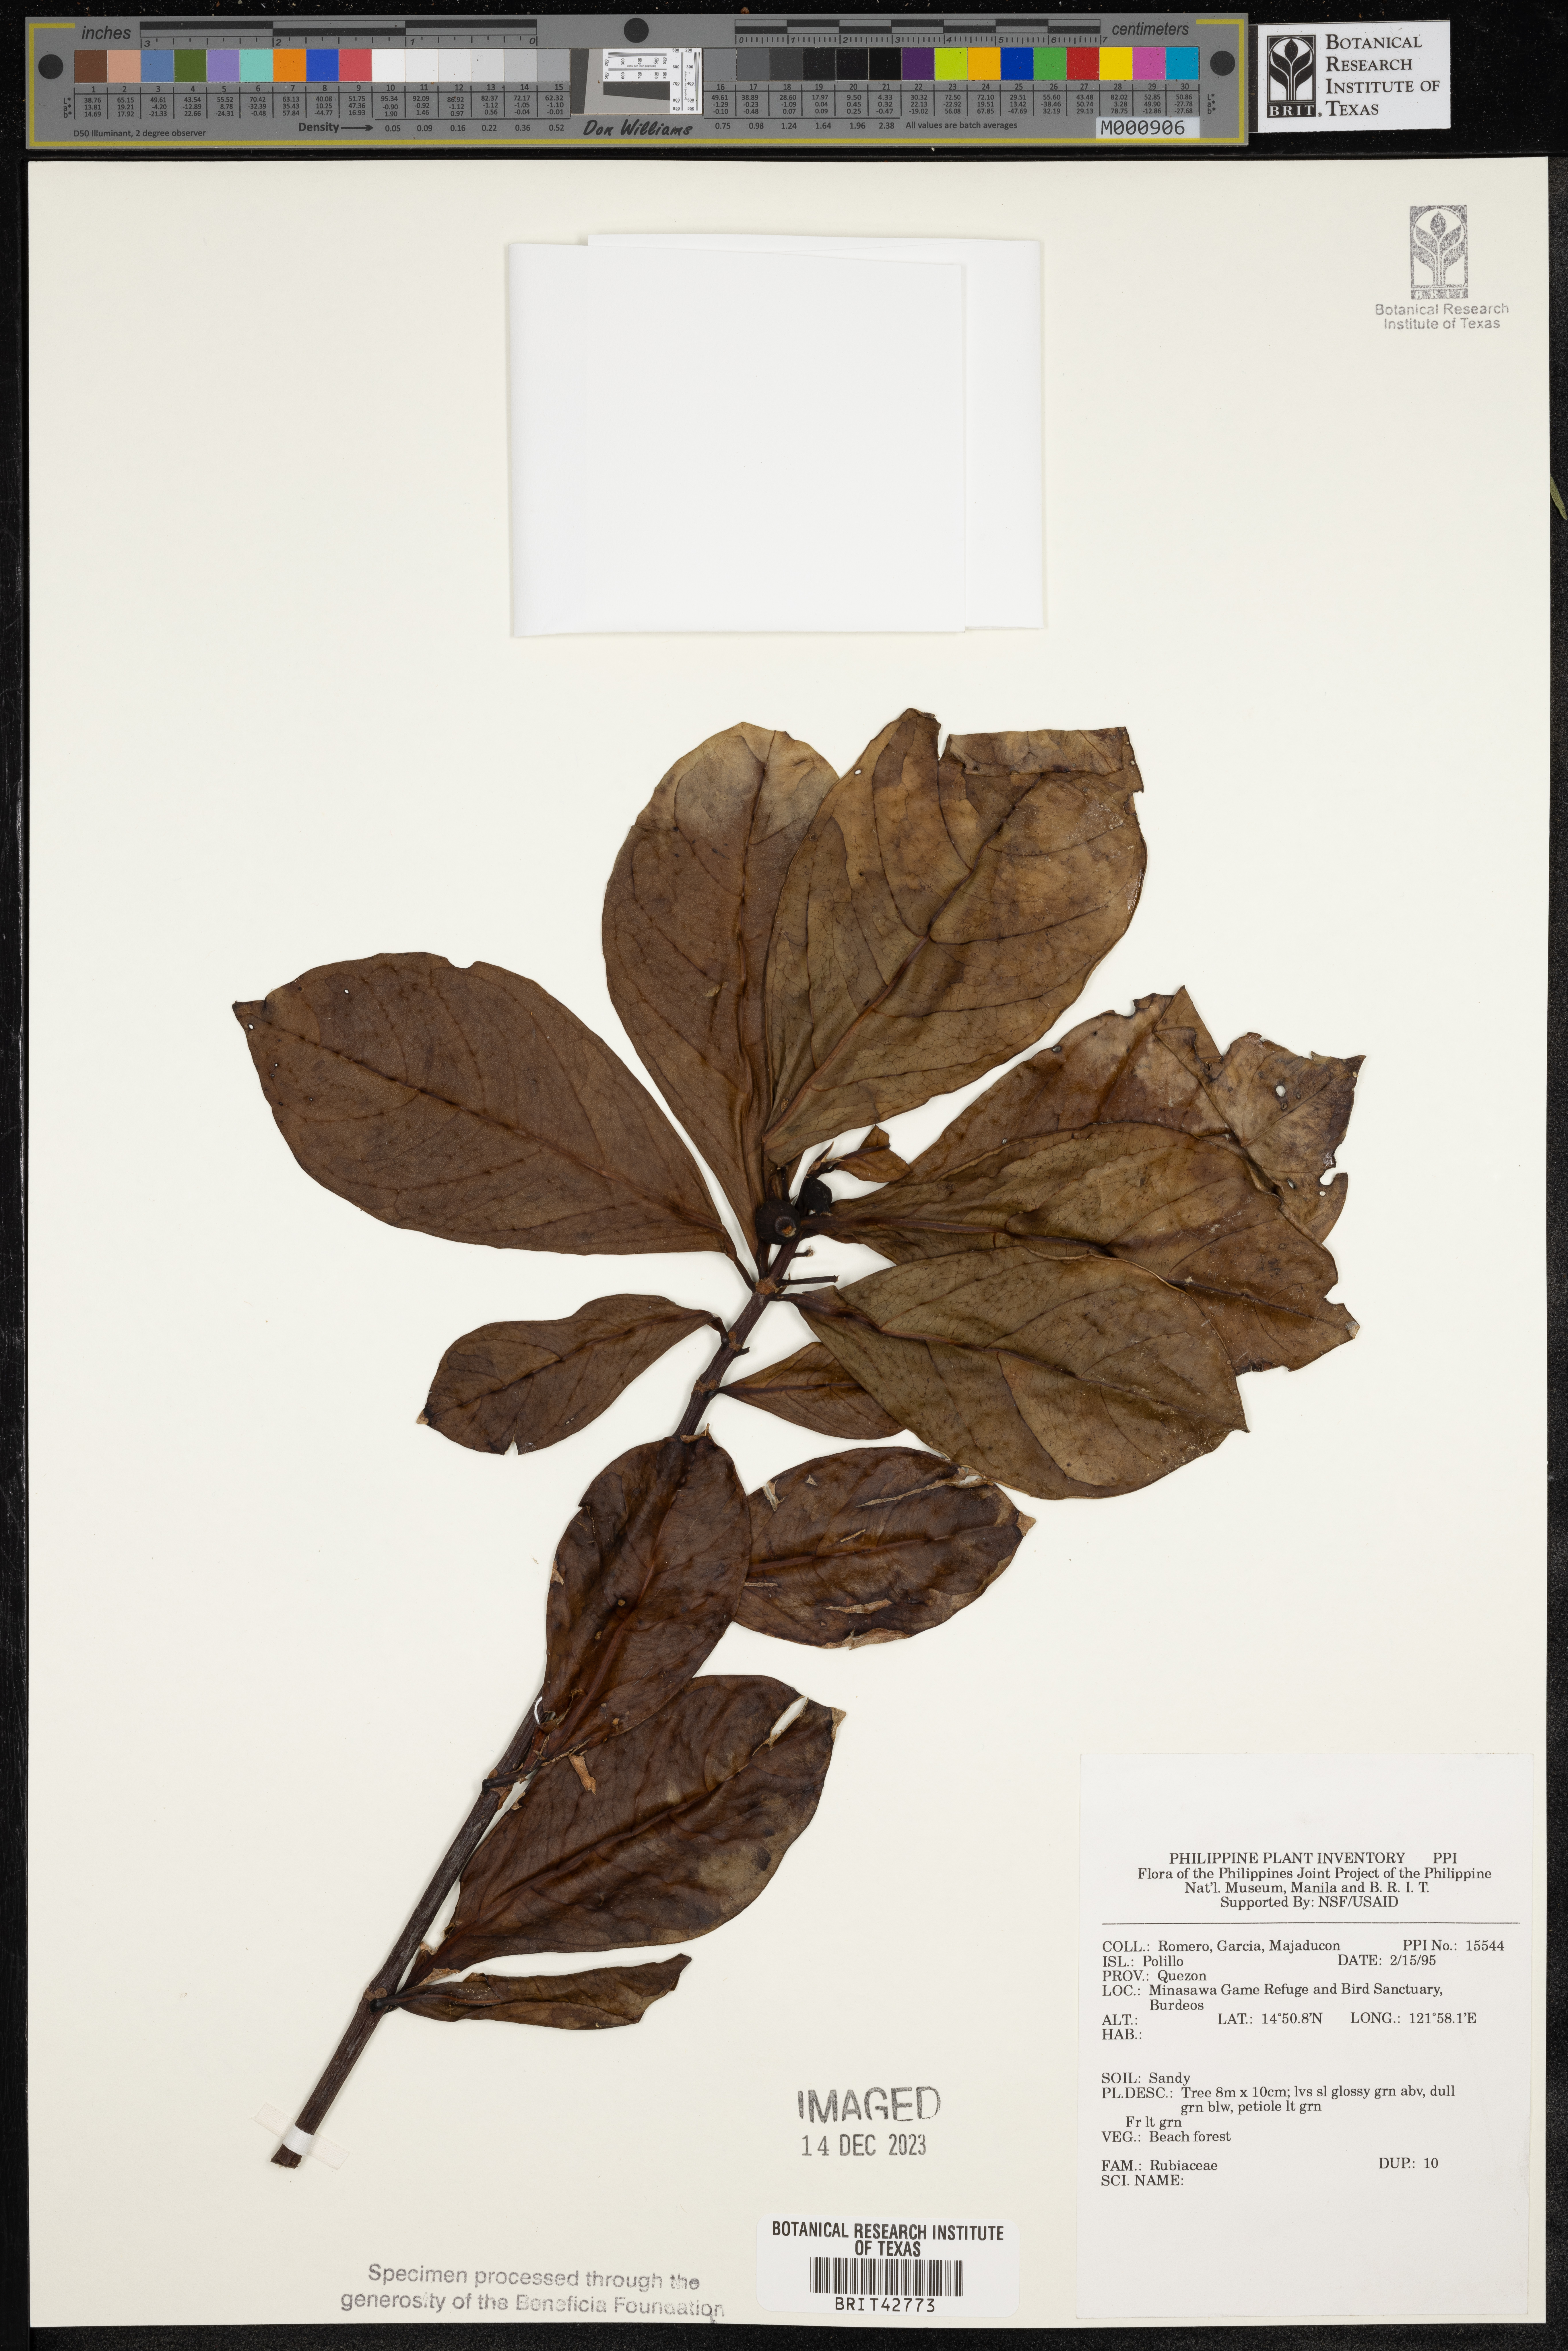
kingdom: Plantae
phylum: Tracheophyta
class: Magnoliopsida
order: Gentianales
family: Rubiaceae
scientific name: Rubiaceae
